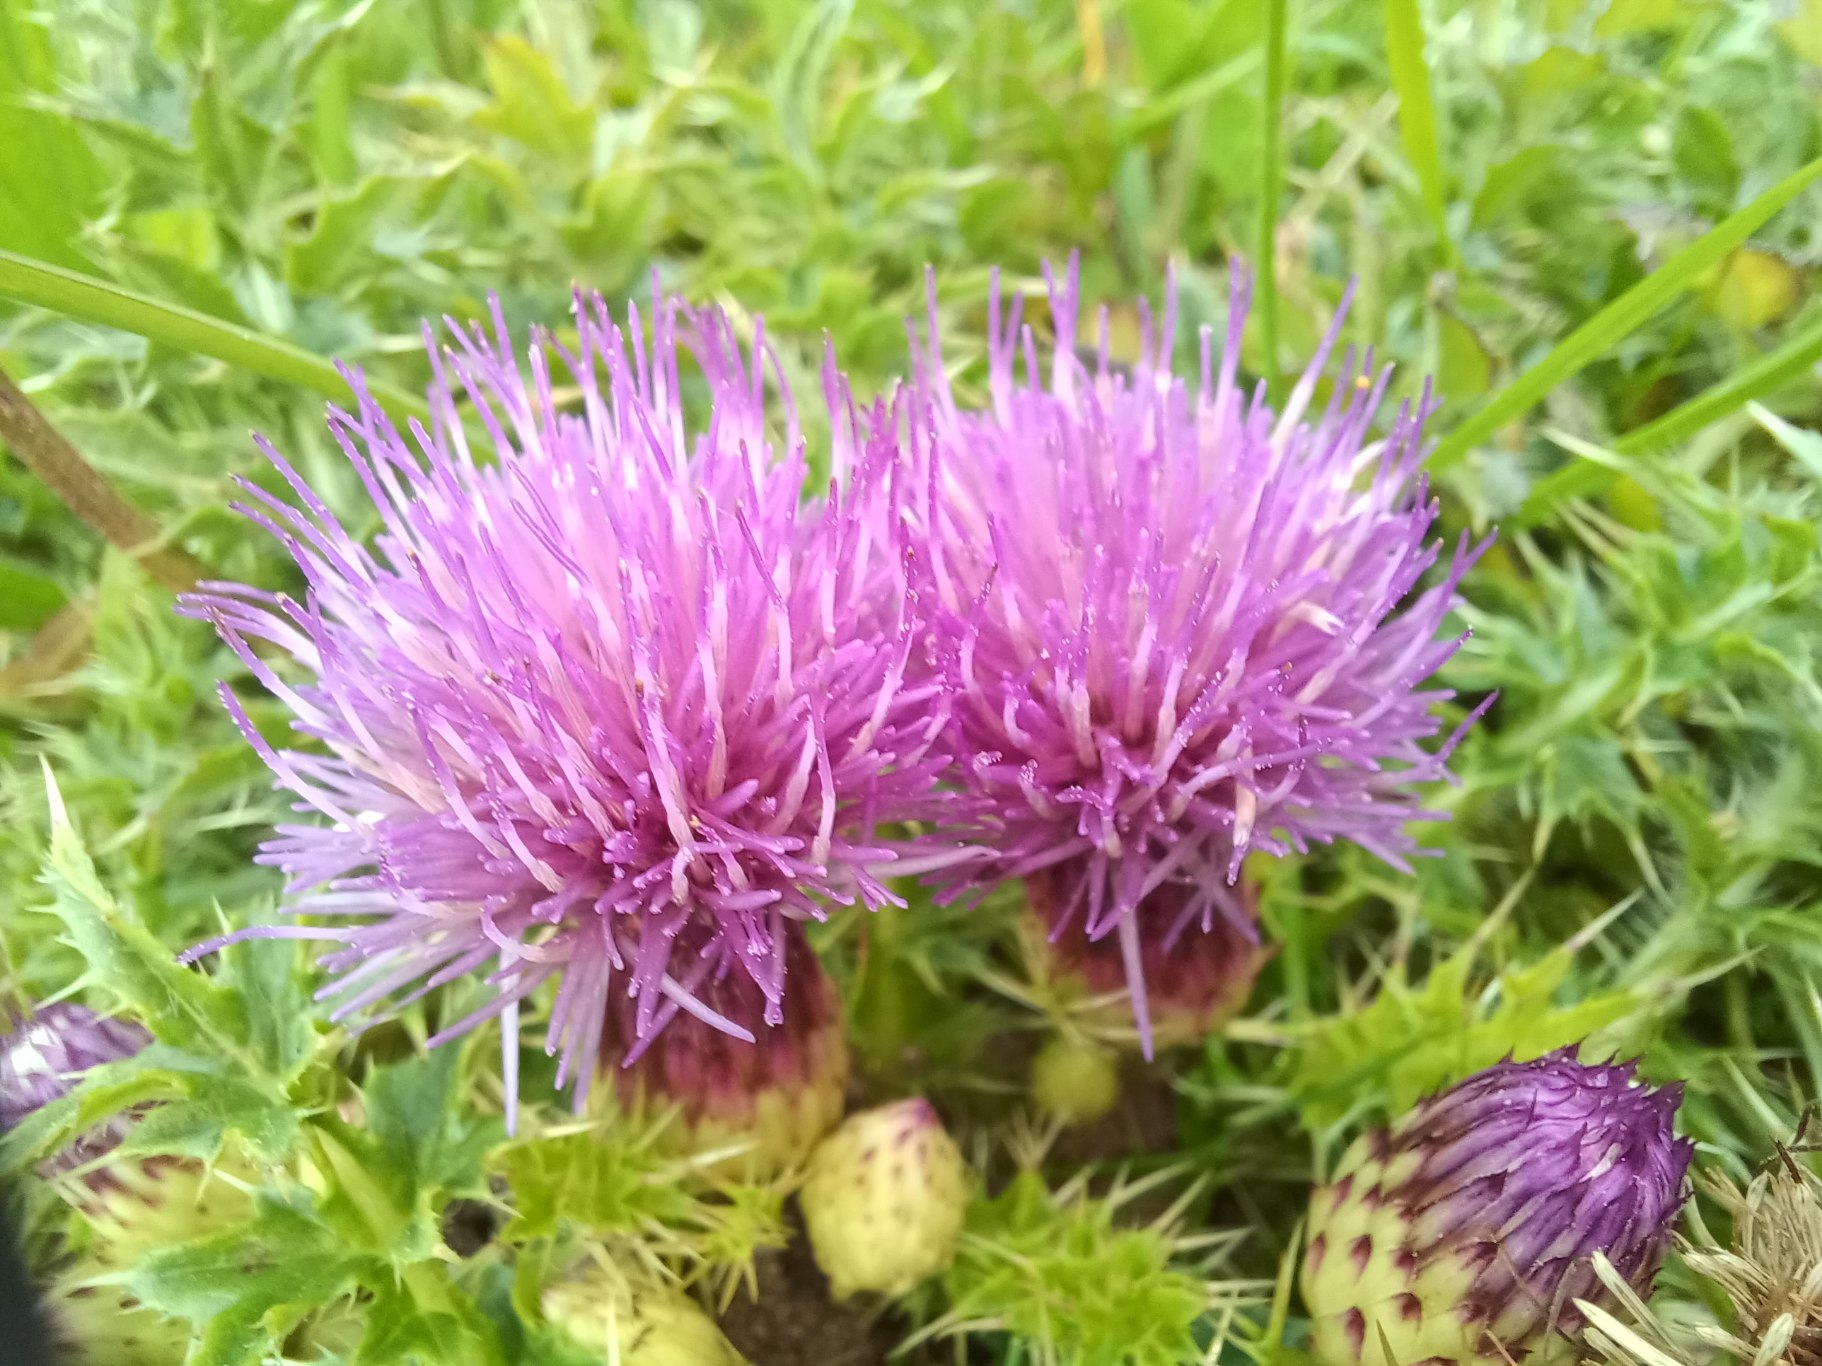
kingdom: Plantae
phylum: Tracheophyta
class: Magnoliopsida
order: Asterales
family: Asteraceae
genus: Cirsium
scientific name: Cirsium acaule
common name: Lav tidsel
